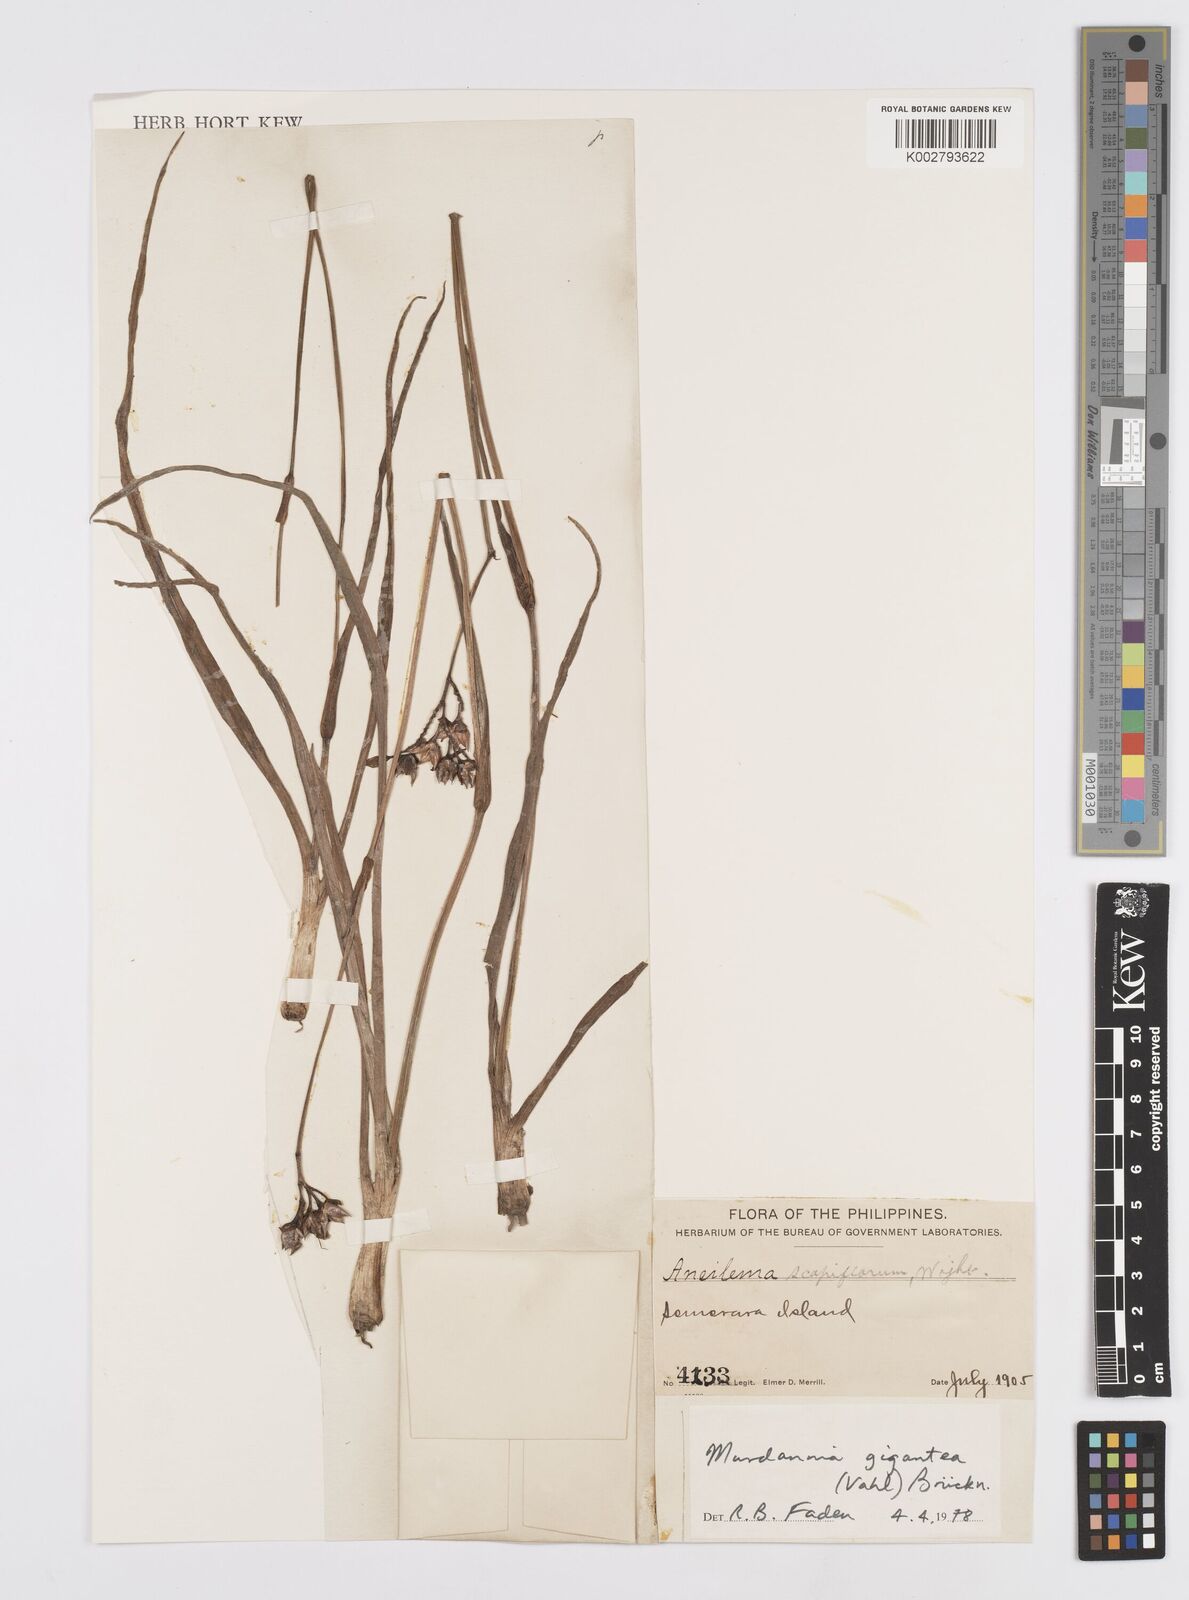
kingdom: Plantae
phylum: Tracheophyta
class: Liliopsida
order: Commelinales
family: Commelinaceae
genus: Murdannia
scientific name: Murdannia gigantea
